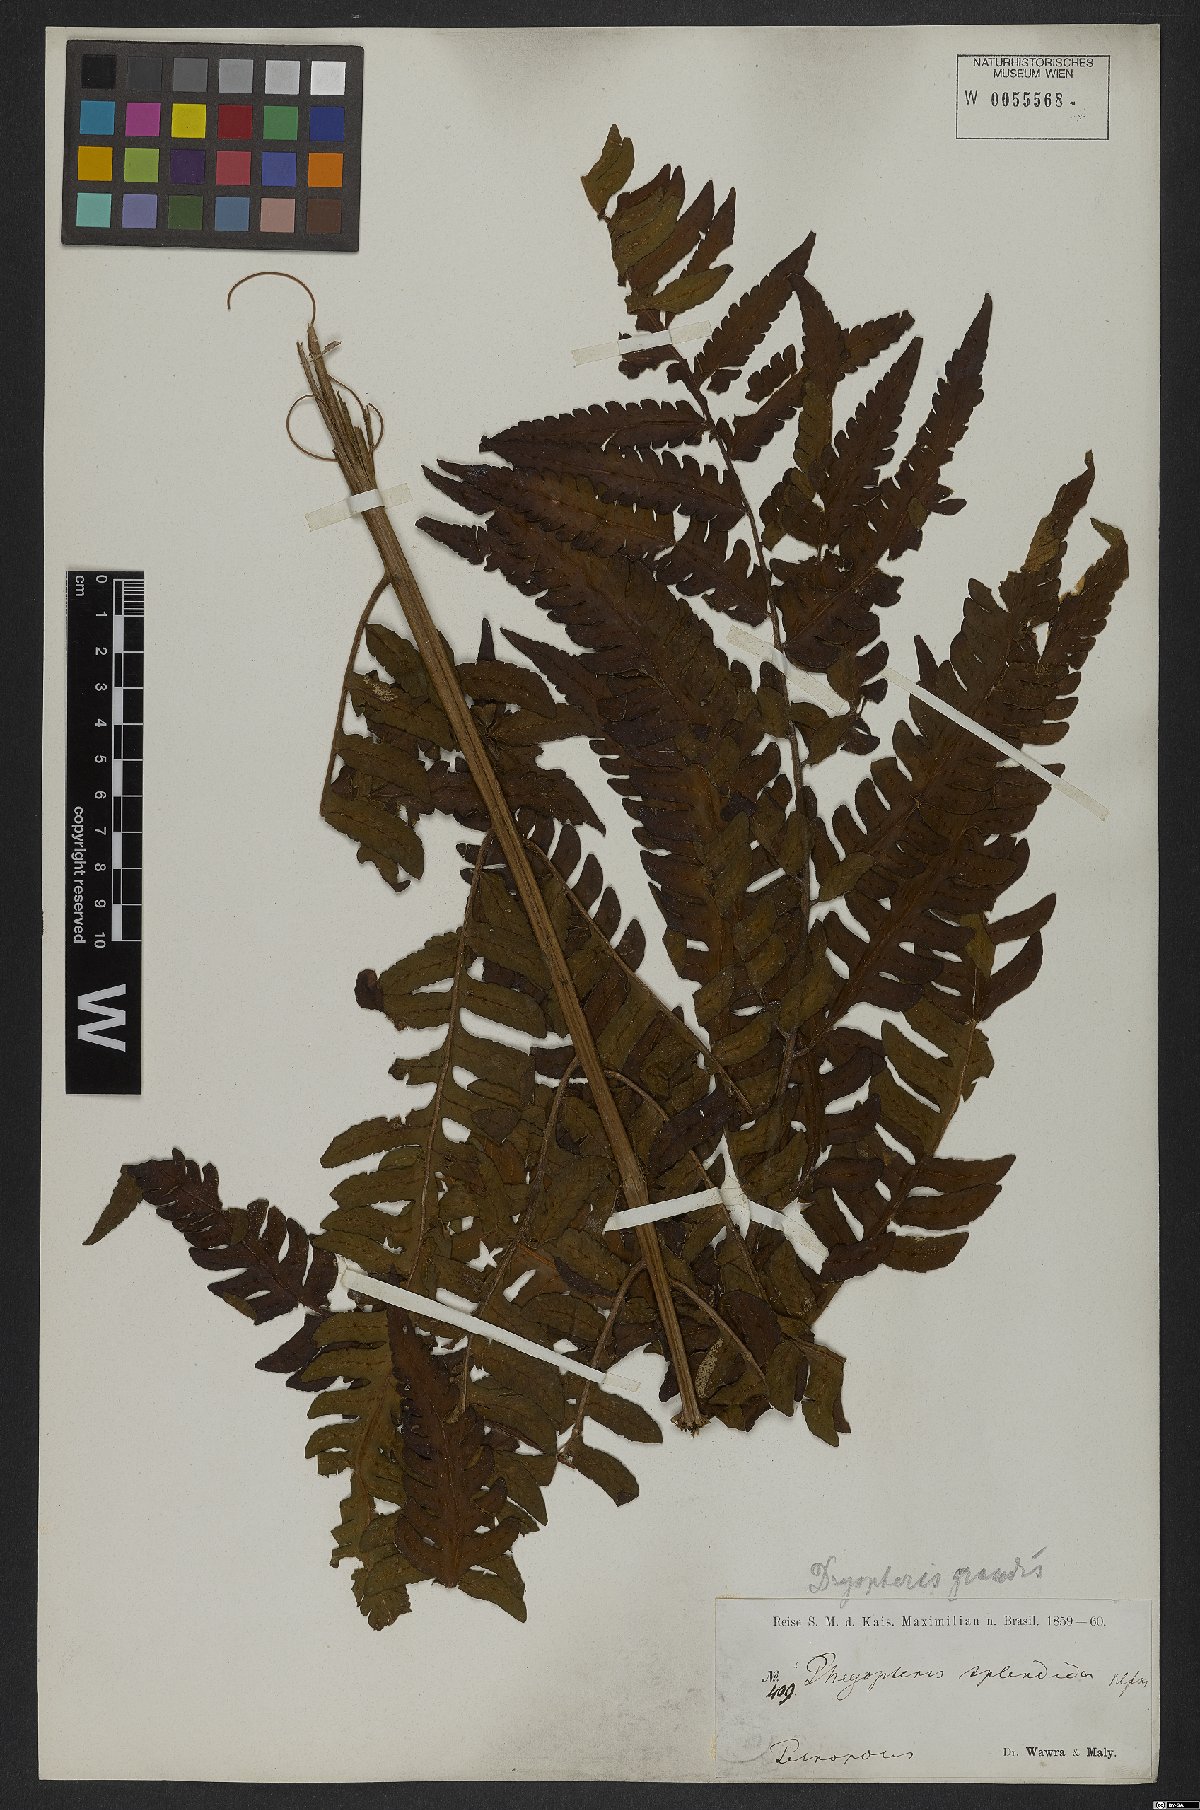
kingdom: Plantae
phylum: Tracheophyta
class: Polypodiopsida
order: Polypodiales
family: Dryopteridaceae
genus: Megalastrum
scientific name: Megalastrum grande
